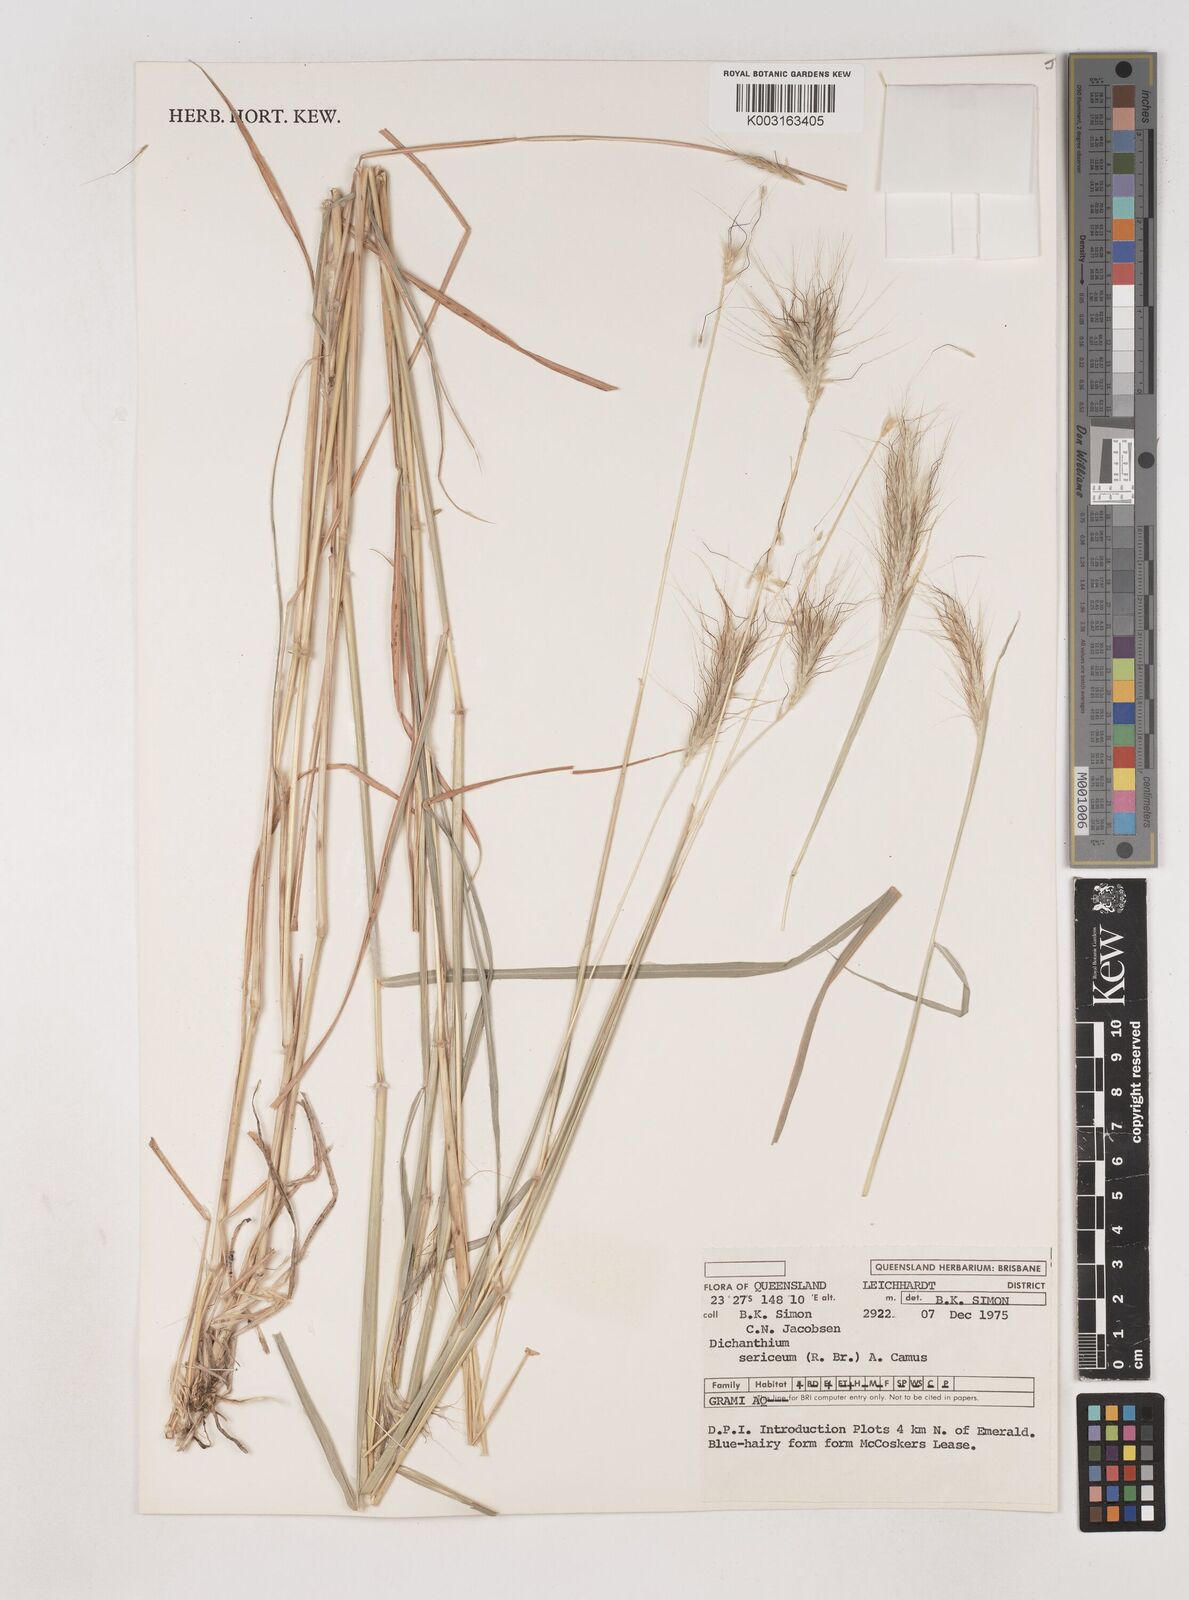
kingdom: Plantae
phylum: Tracheophyta
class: Liliopsida
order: Poales
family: Poaceae
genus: Dichanthium
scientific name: Dichanthium sericeum
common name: Silky bluestem
